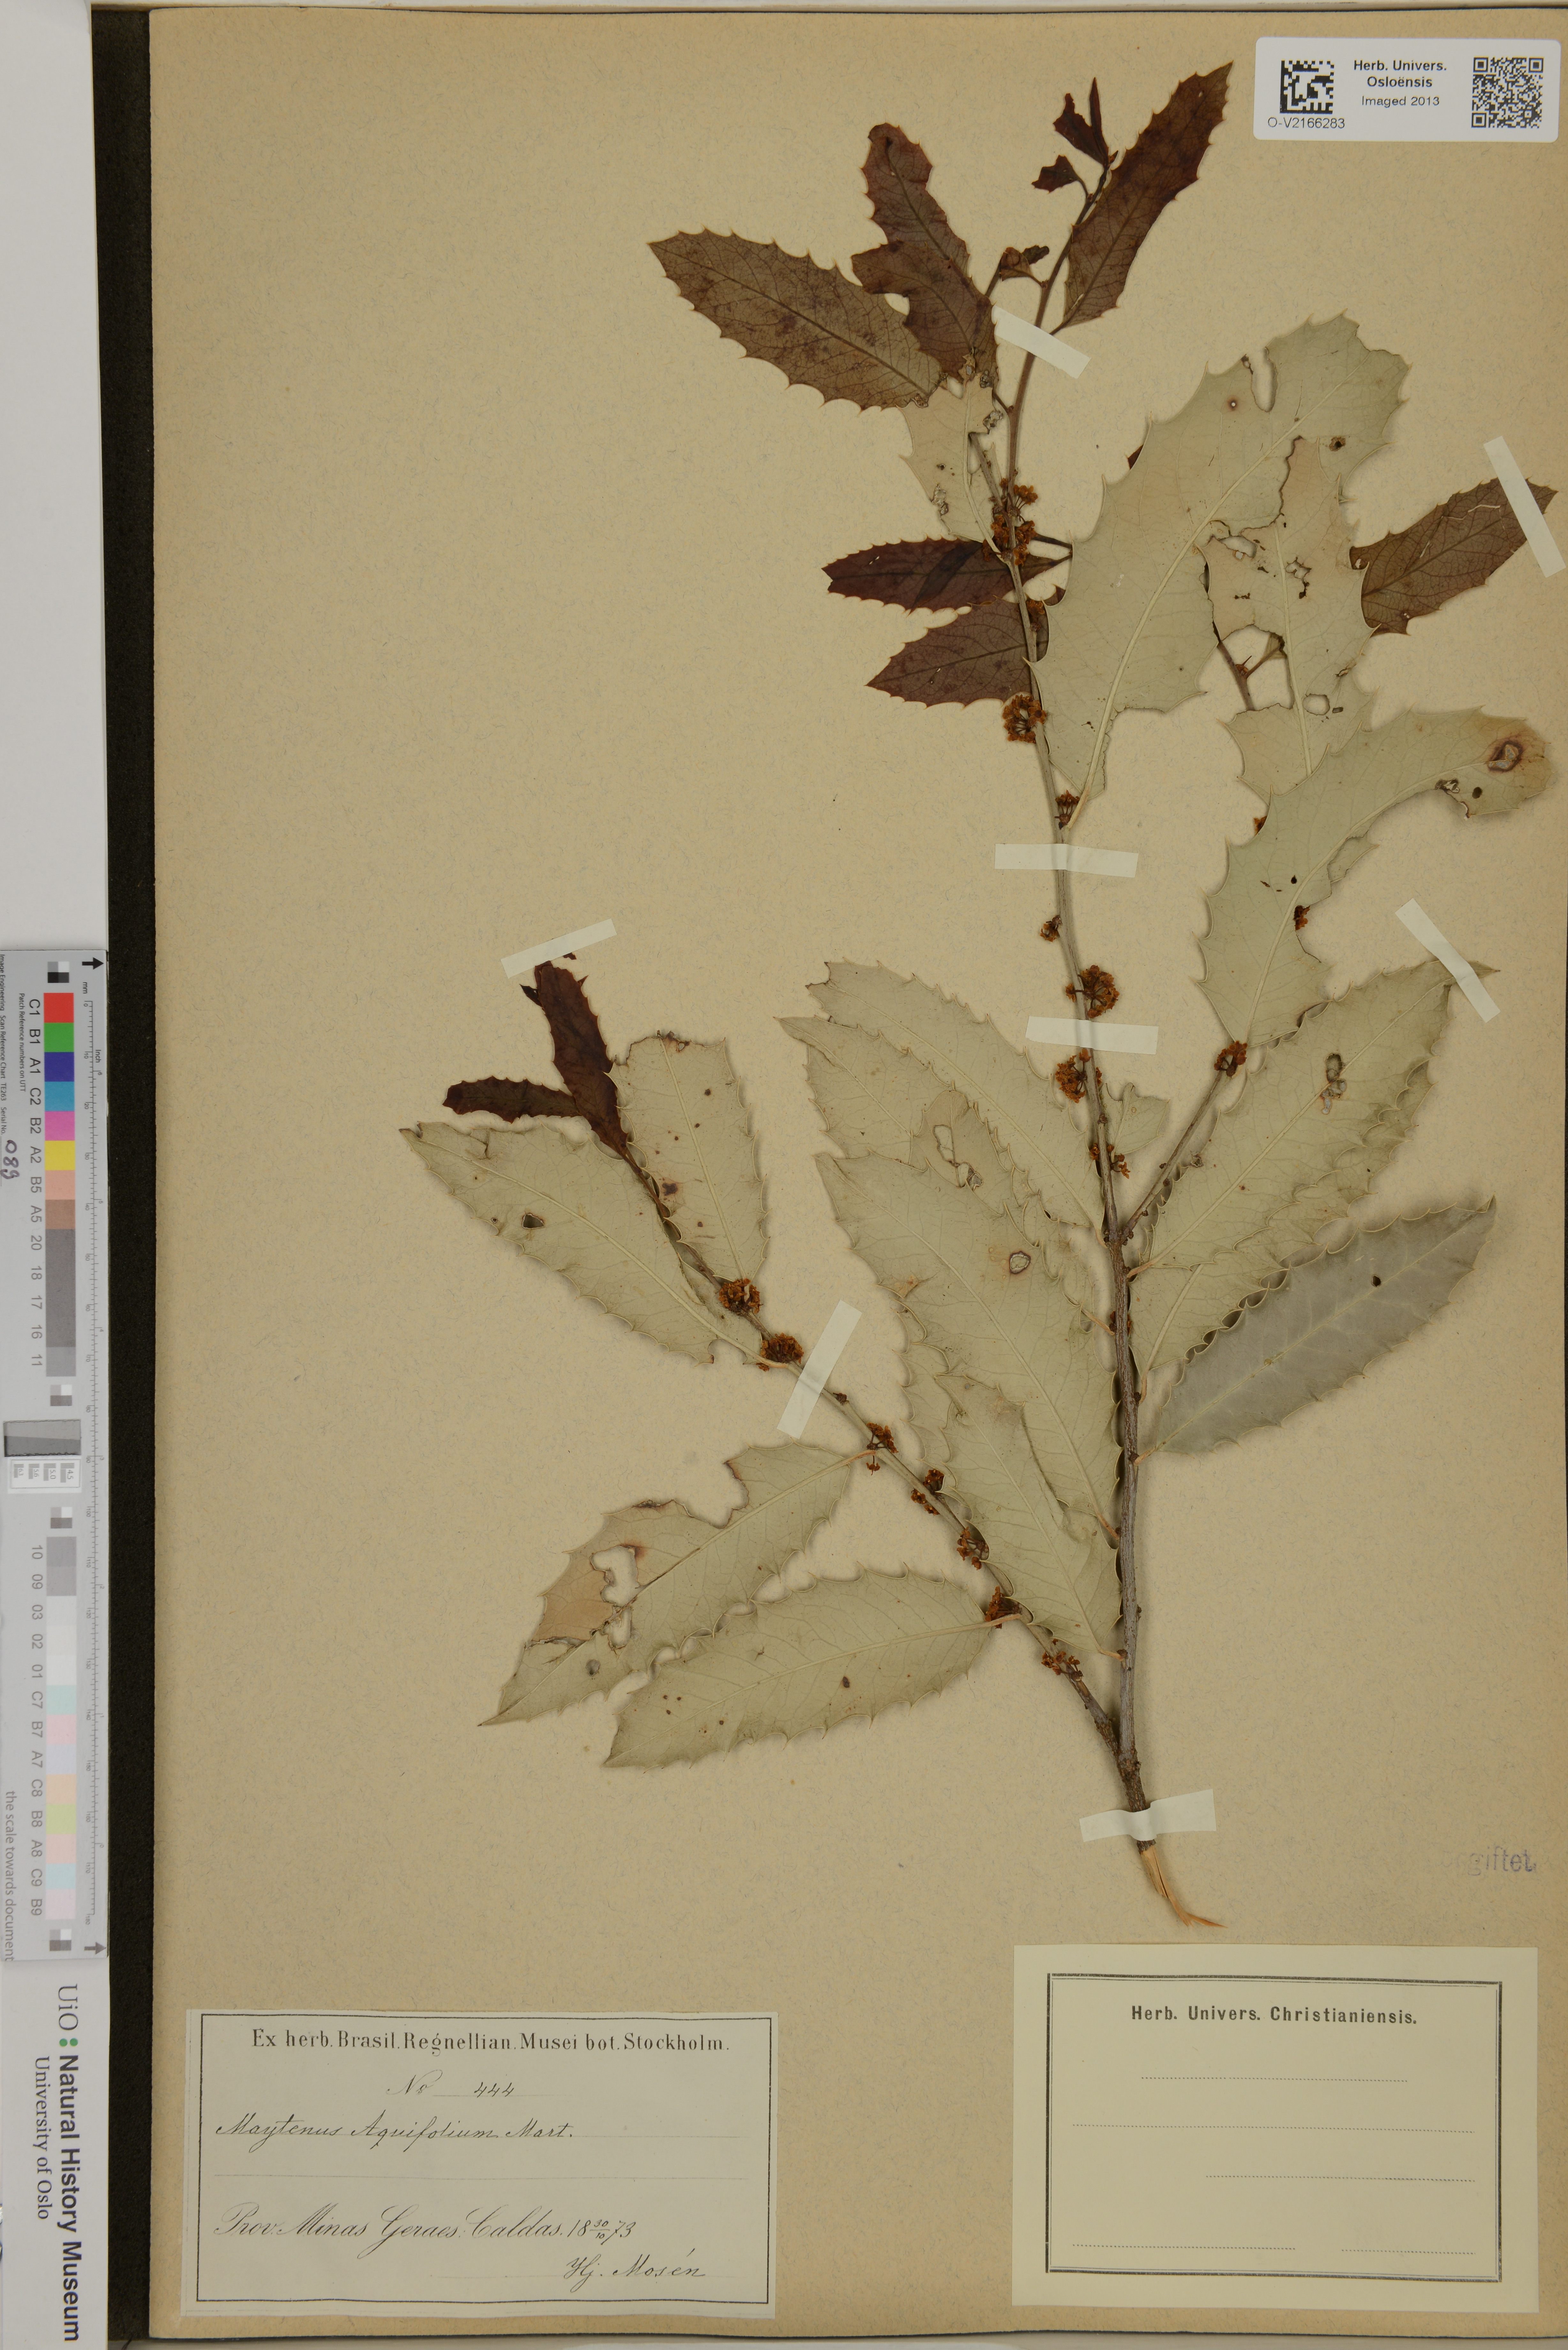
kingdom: Plantae
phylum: Tracheophyta
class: Magnoliopsida
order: Celastrales
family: Celastraceae
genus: Monteverdia
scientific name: Monteverdia aquifolium
